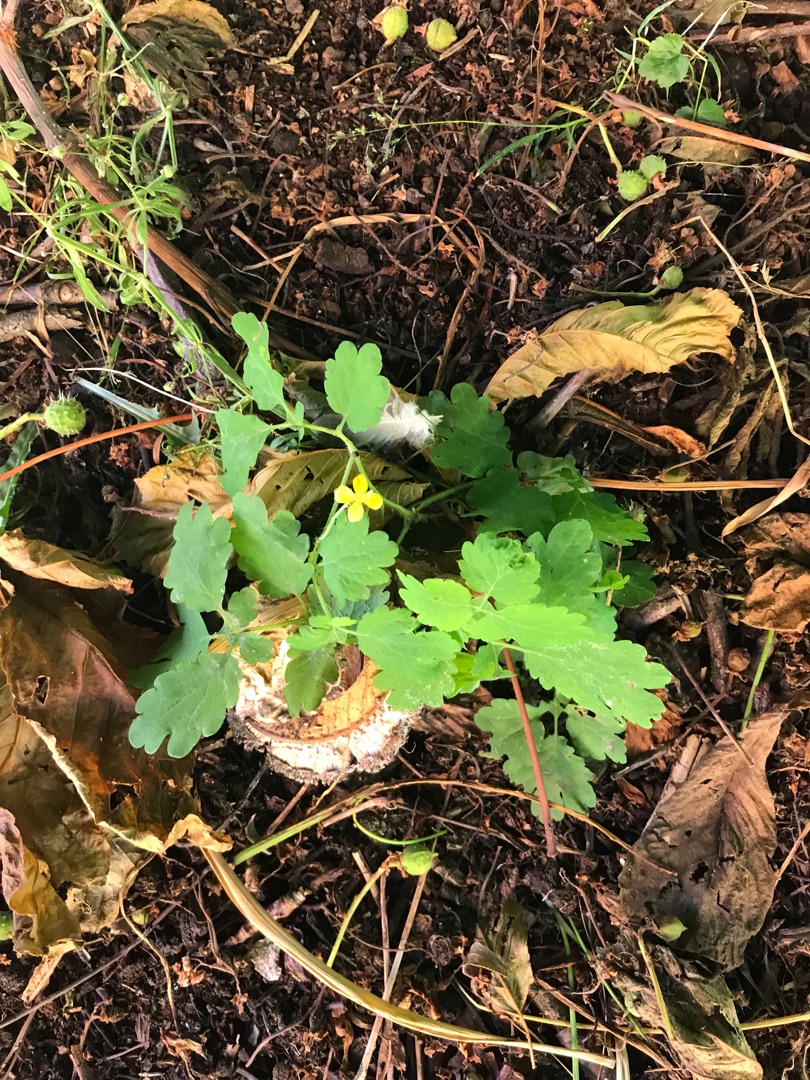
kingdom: Plantae
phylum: Tracheophyta
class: Magnoliopsida
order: Ranunculales
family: Papaveraceae
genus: Chelidonium
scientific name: Chelidonium majus
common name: Svaleurt
